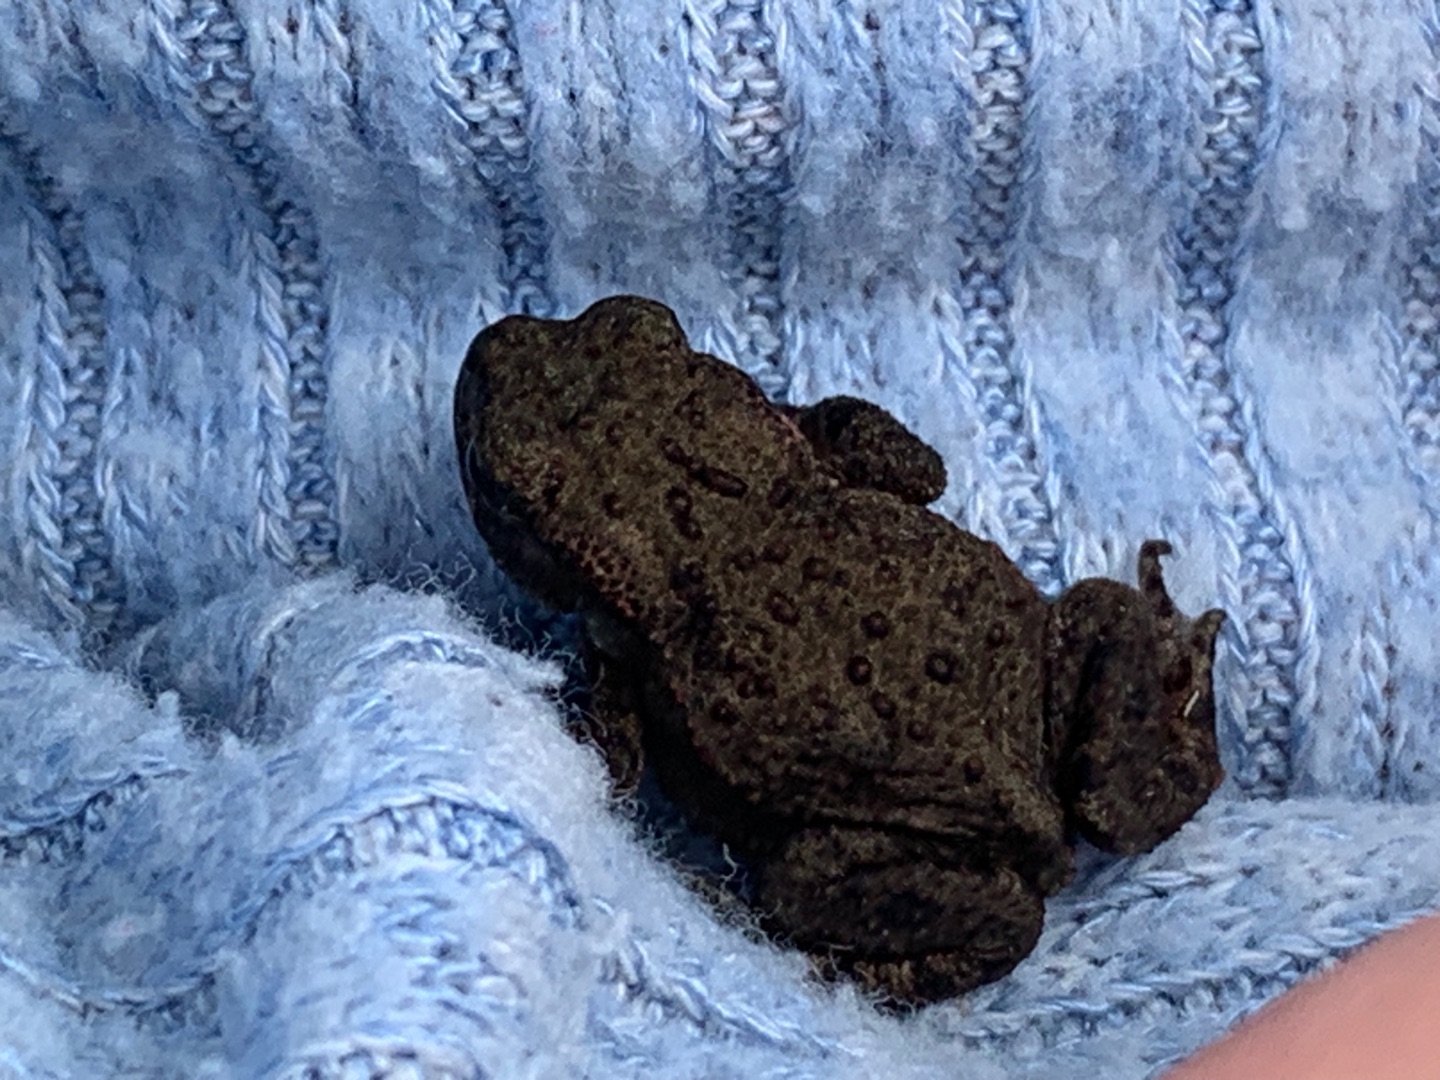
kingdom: Animalia
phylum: Chordata
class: Amphibia
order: Anura
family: Bufonidae
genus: Bufo
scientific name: Bufo bufo
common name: Skrubtudse
